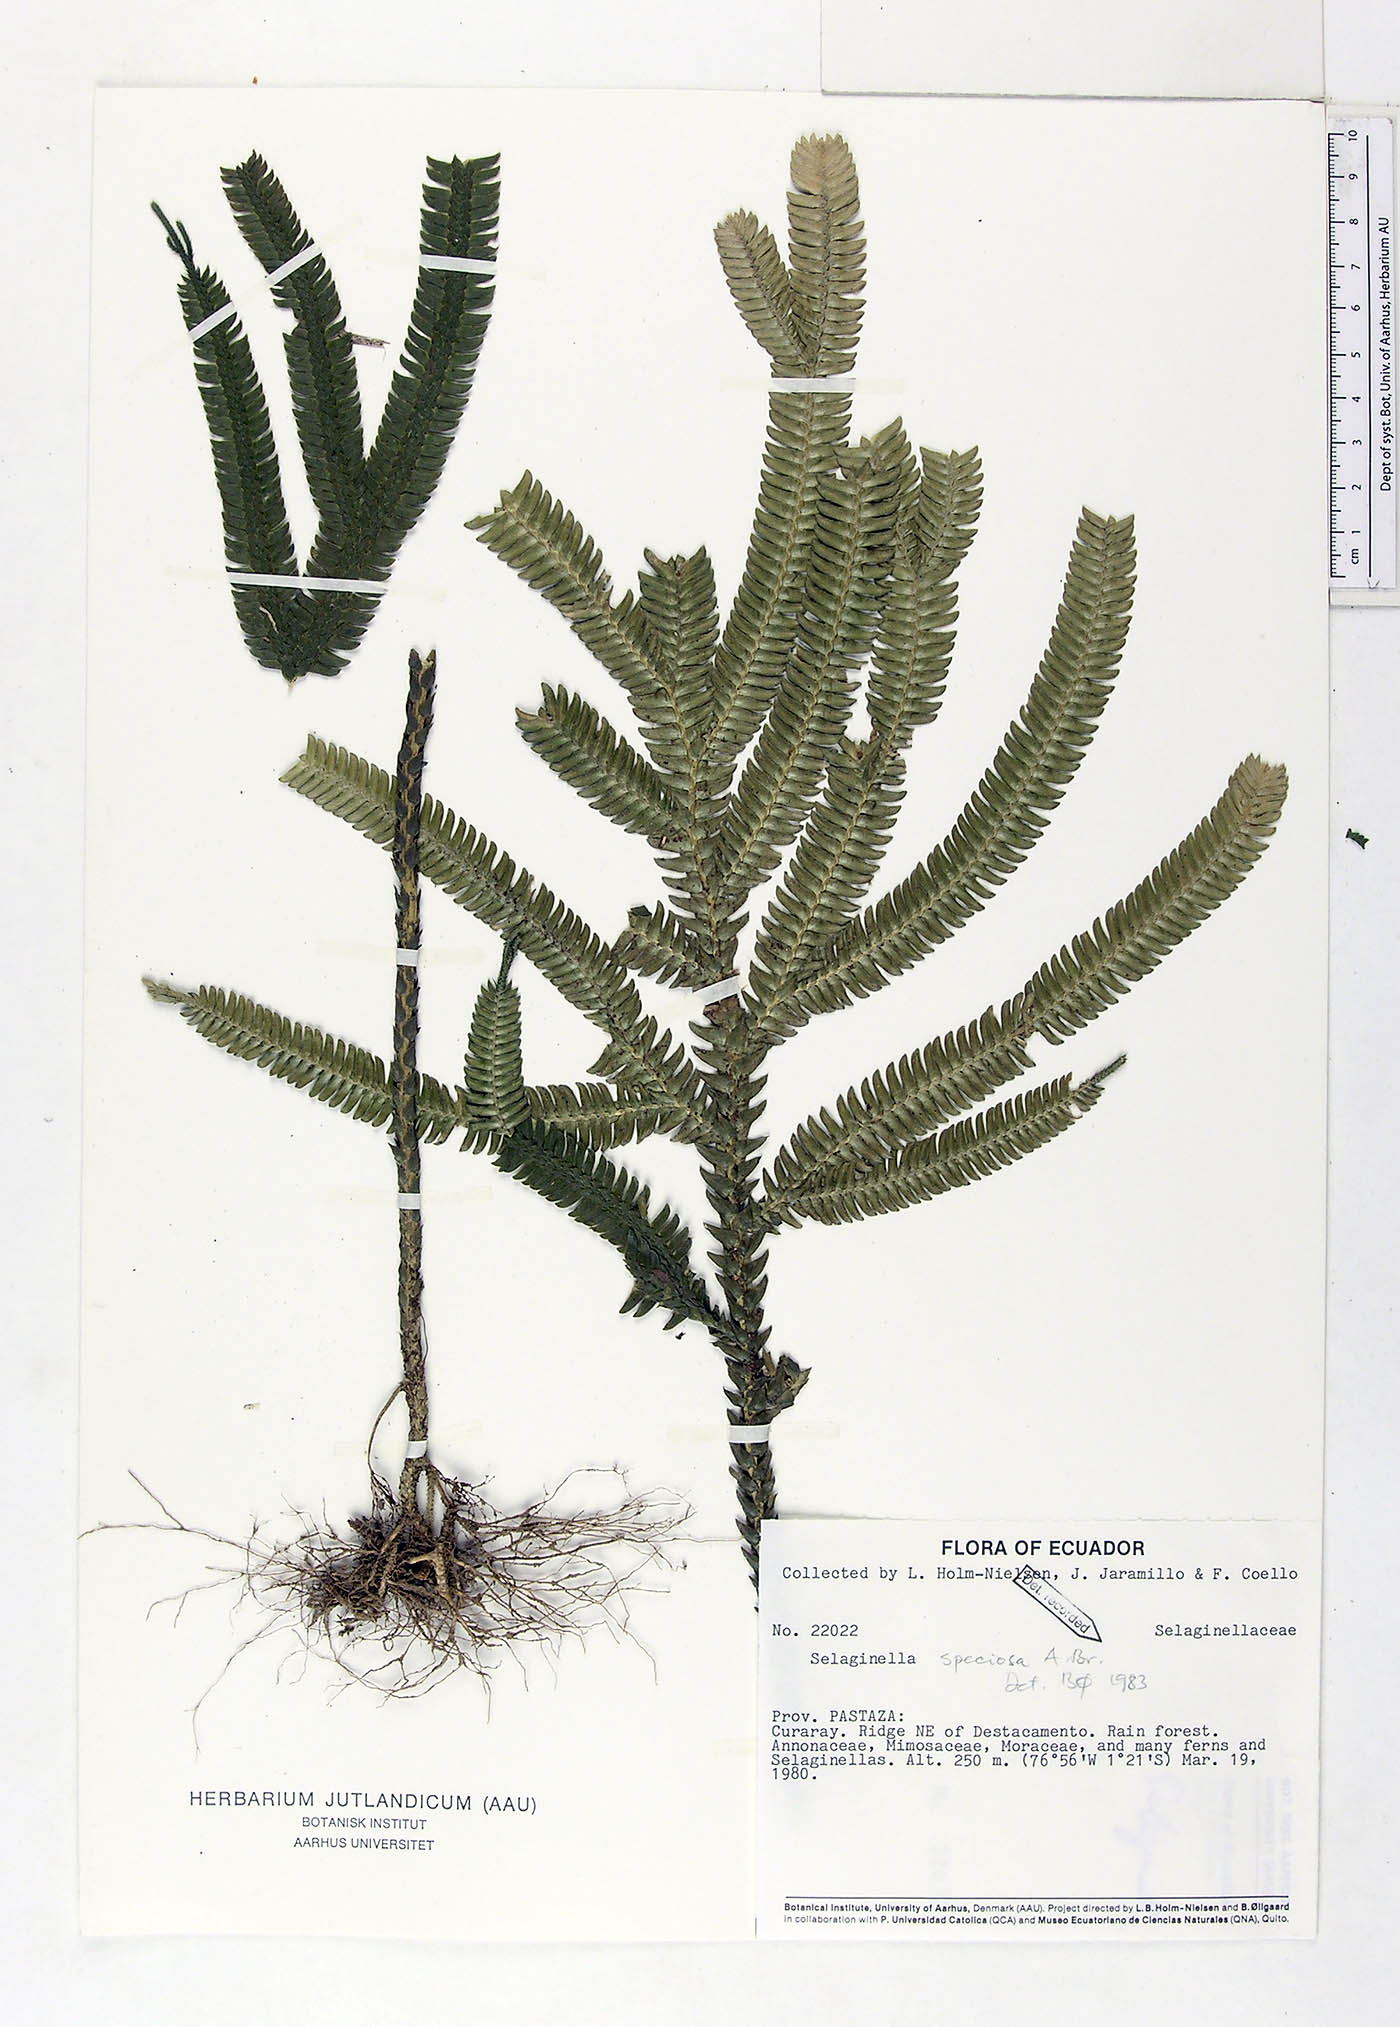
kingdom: Plantae
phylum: Tracheophyta
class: Lycopodiopsida
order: Selaginellales
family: Selaginellaceae
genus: Selaginella
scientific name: Selaginella speciosa
